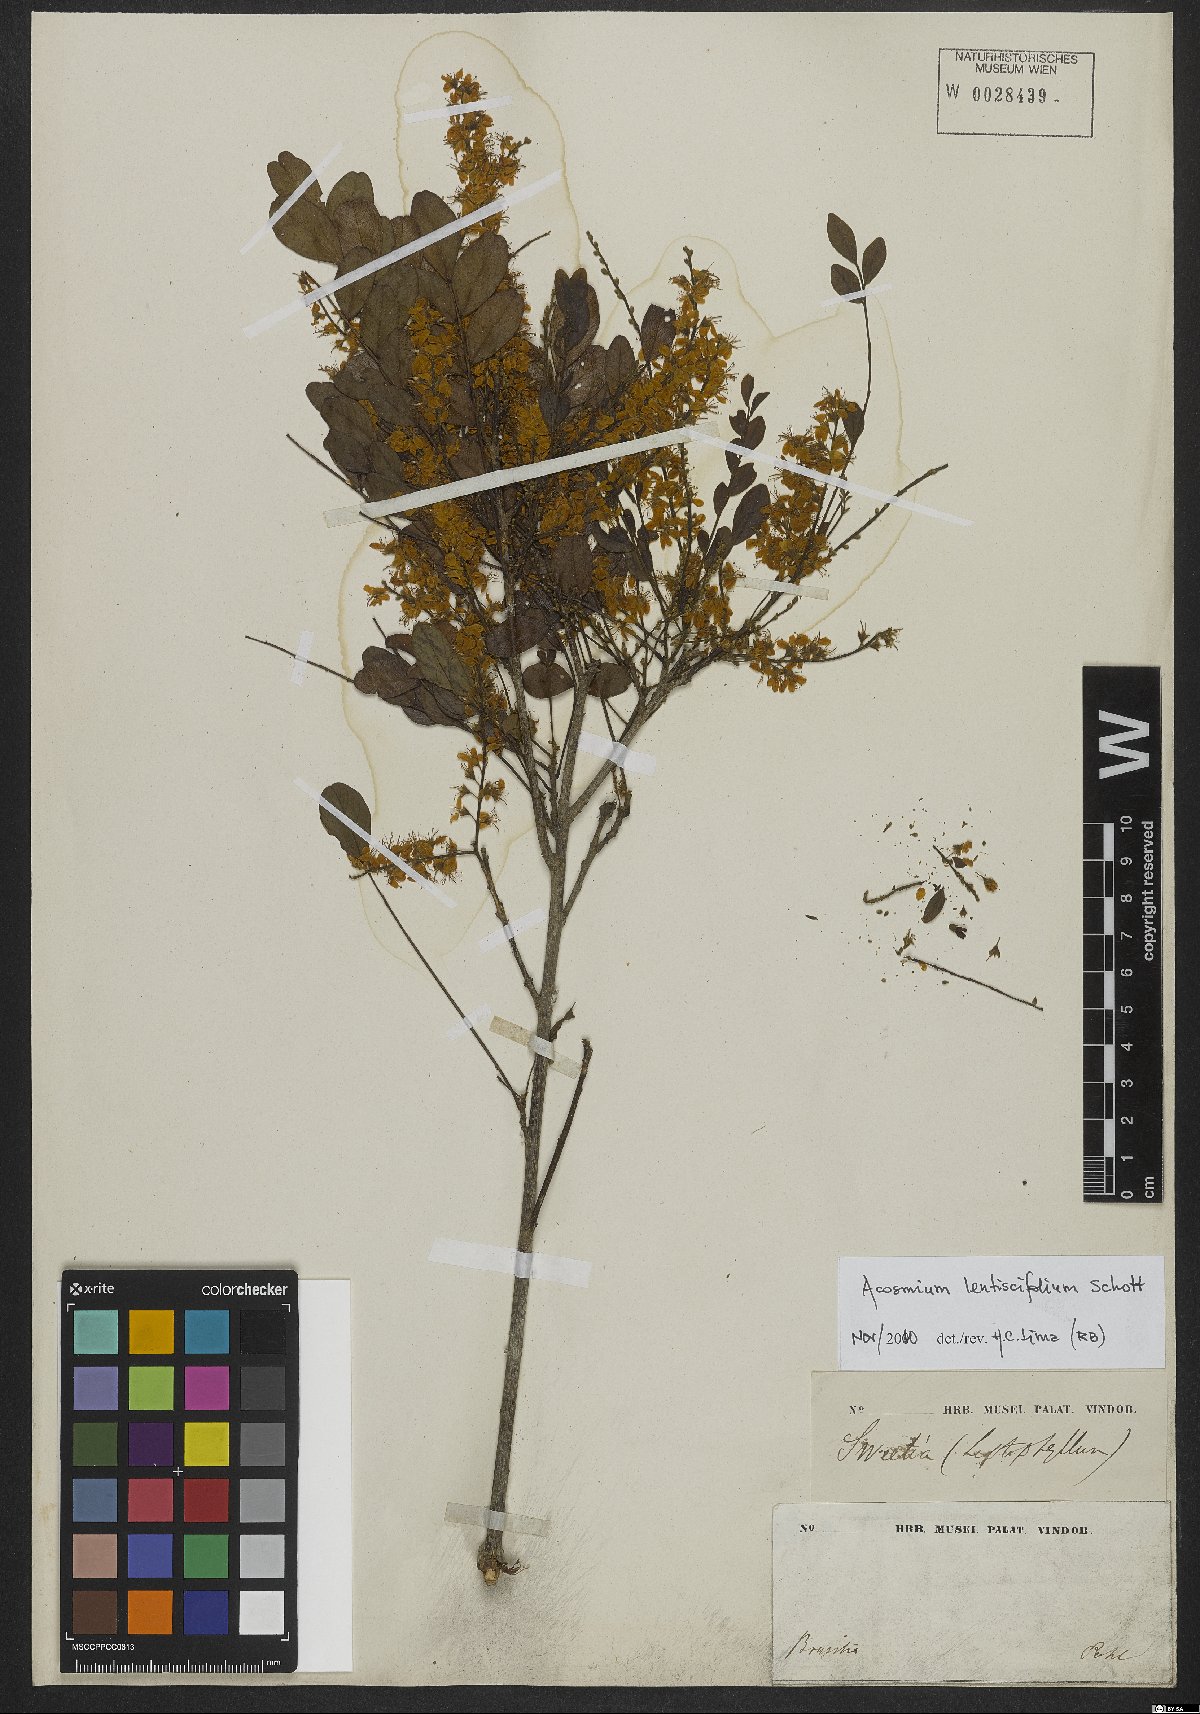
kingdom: Plantae
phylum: Tracheophyta
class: Magnoliopsida
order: Fabales
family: Fabaceae
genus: Acosmium
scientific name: Acosmium lentiscifolium
